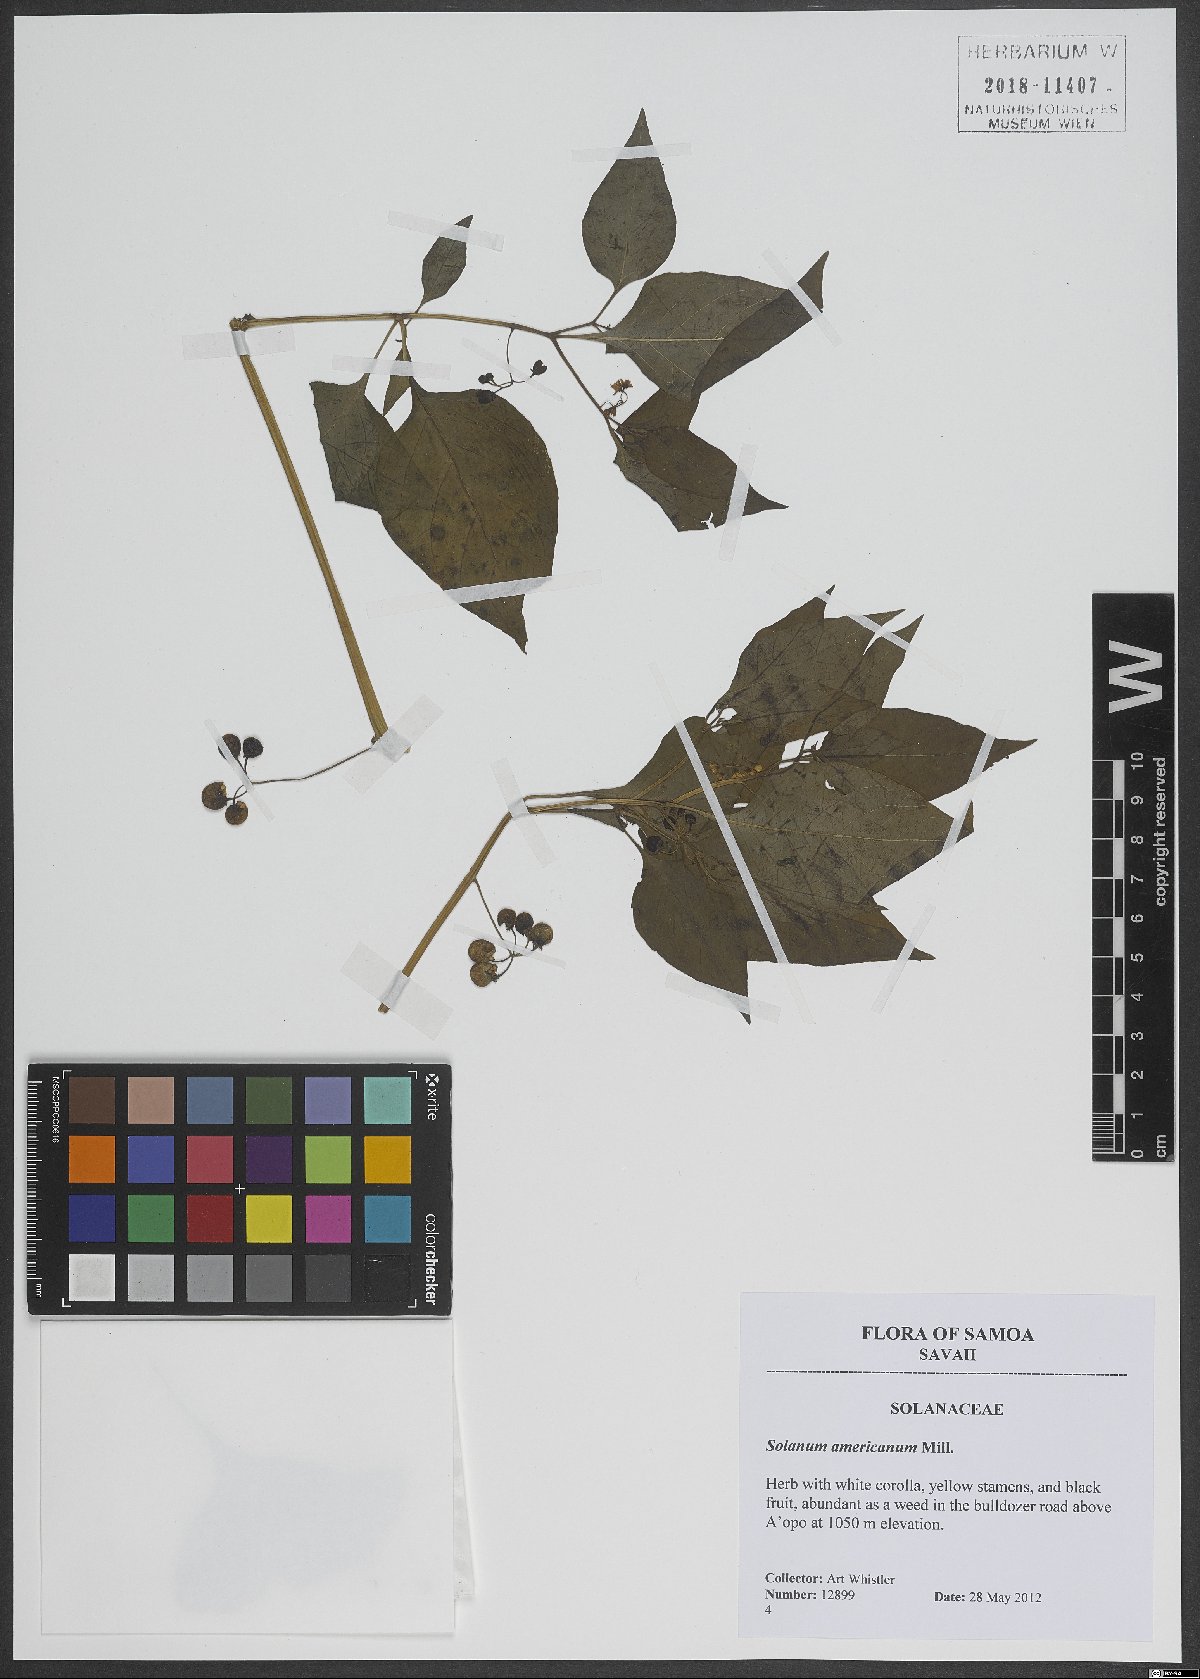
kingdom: Plantae
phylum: Tracheophyta
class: Magnoliopsida
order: Solanales
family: Solanaceae
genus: Solanum
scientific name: Solanum americanum
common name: American black nightshade
